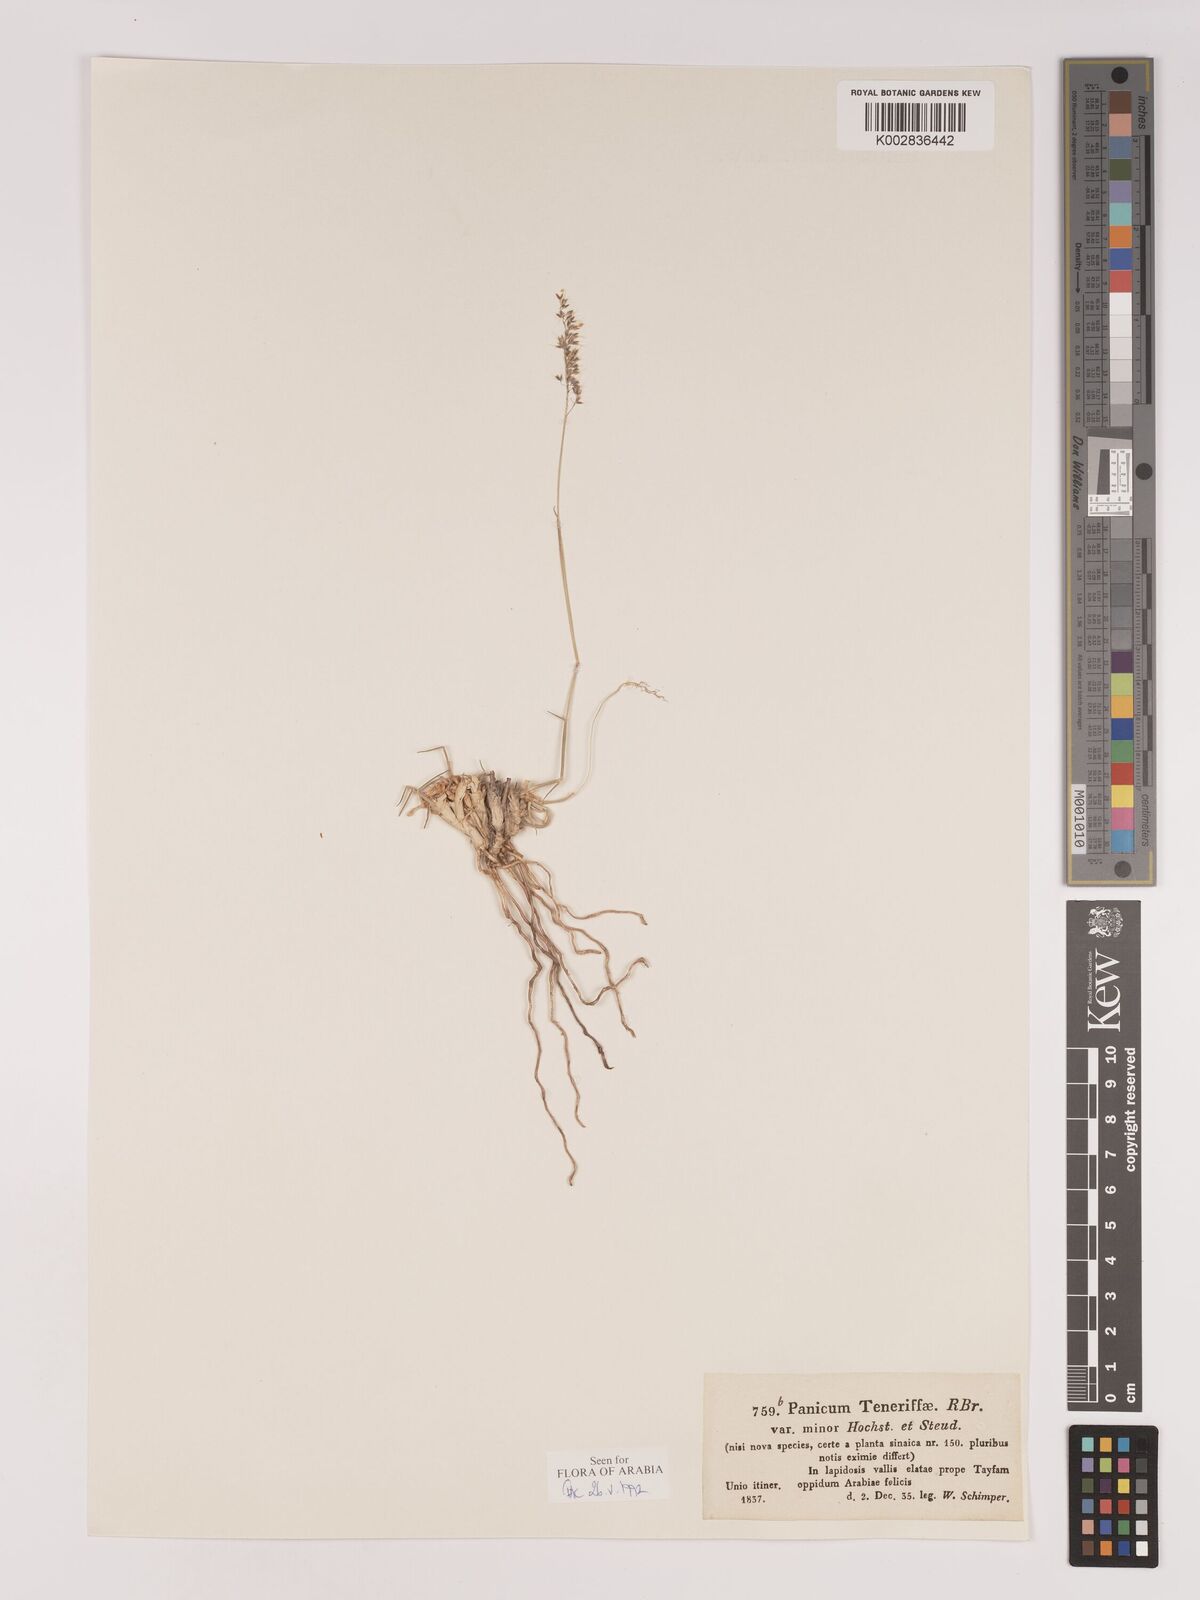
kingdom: Plantae
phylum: Tracheophyta
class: Liliopsida
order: Poales
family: Poaceae
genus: Tricholaena
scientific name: Tricholaena teneriffae
